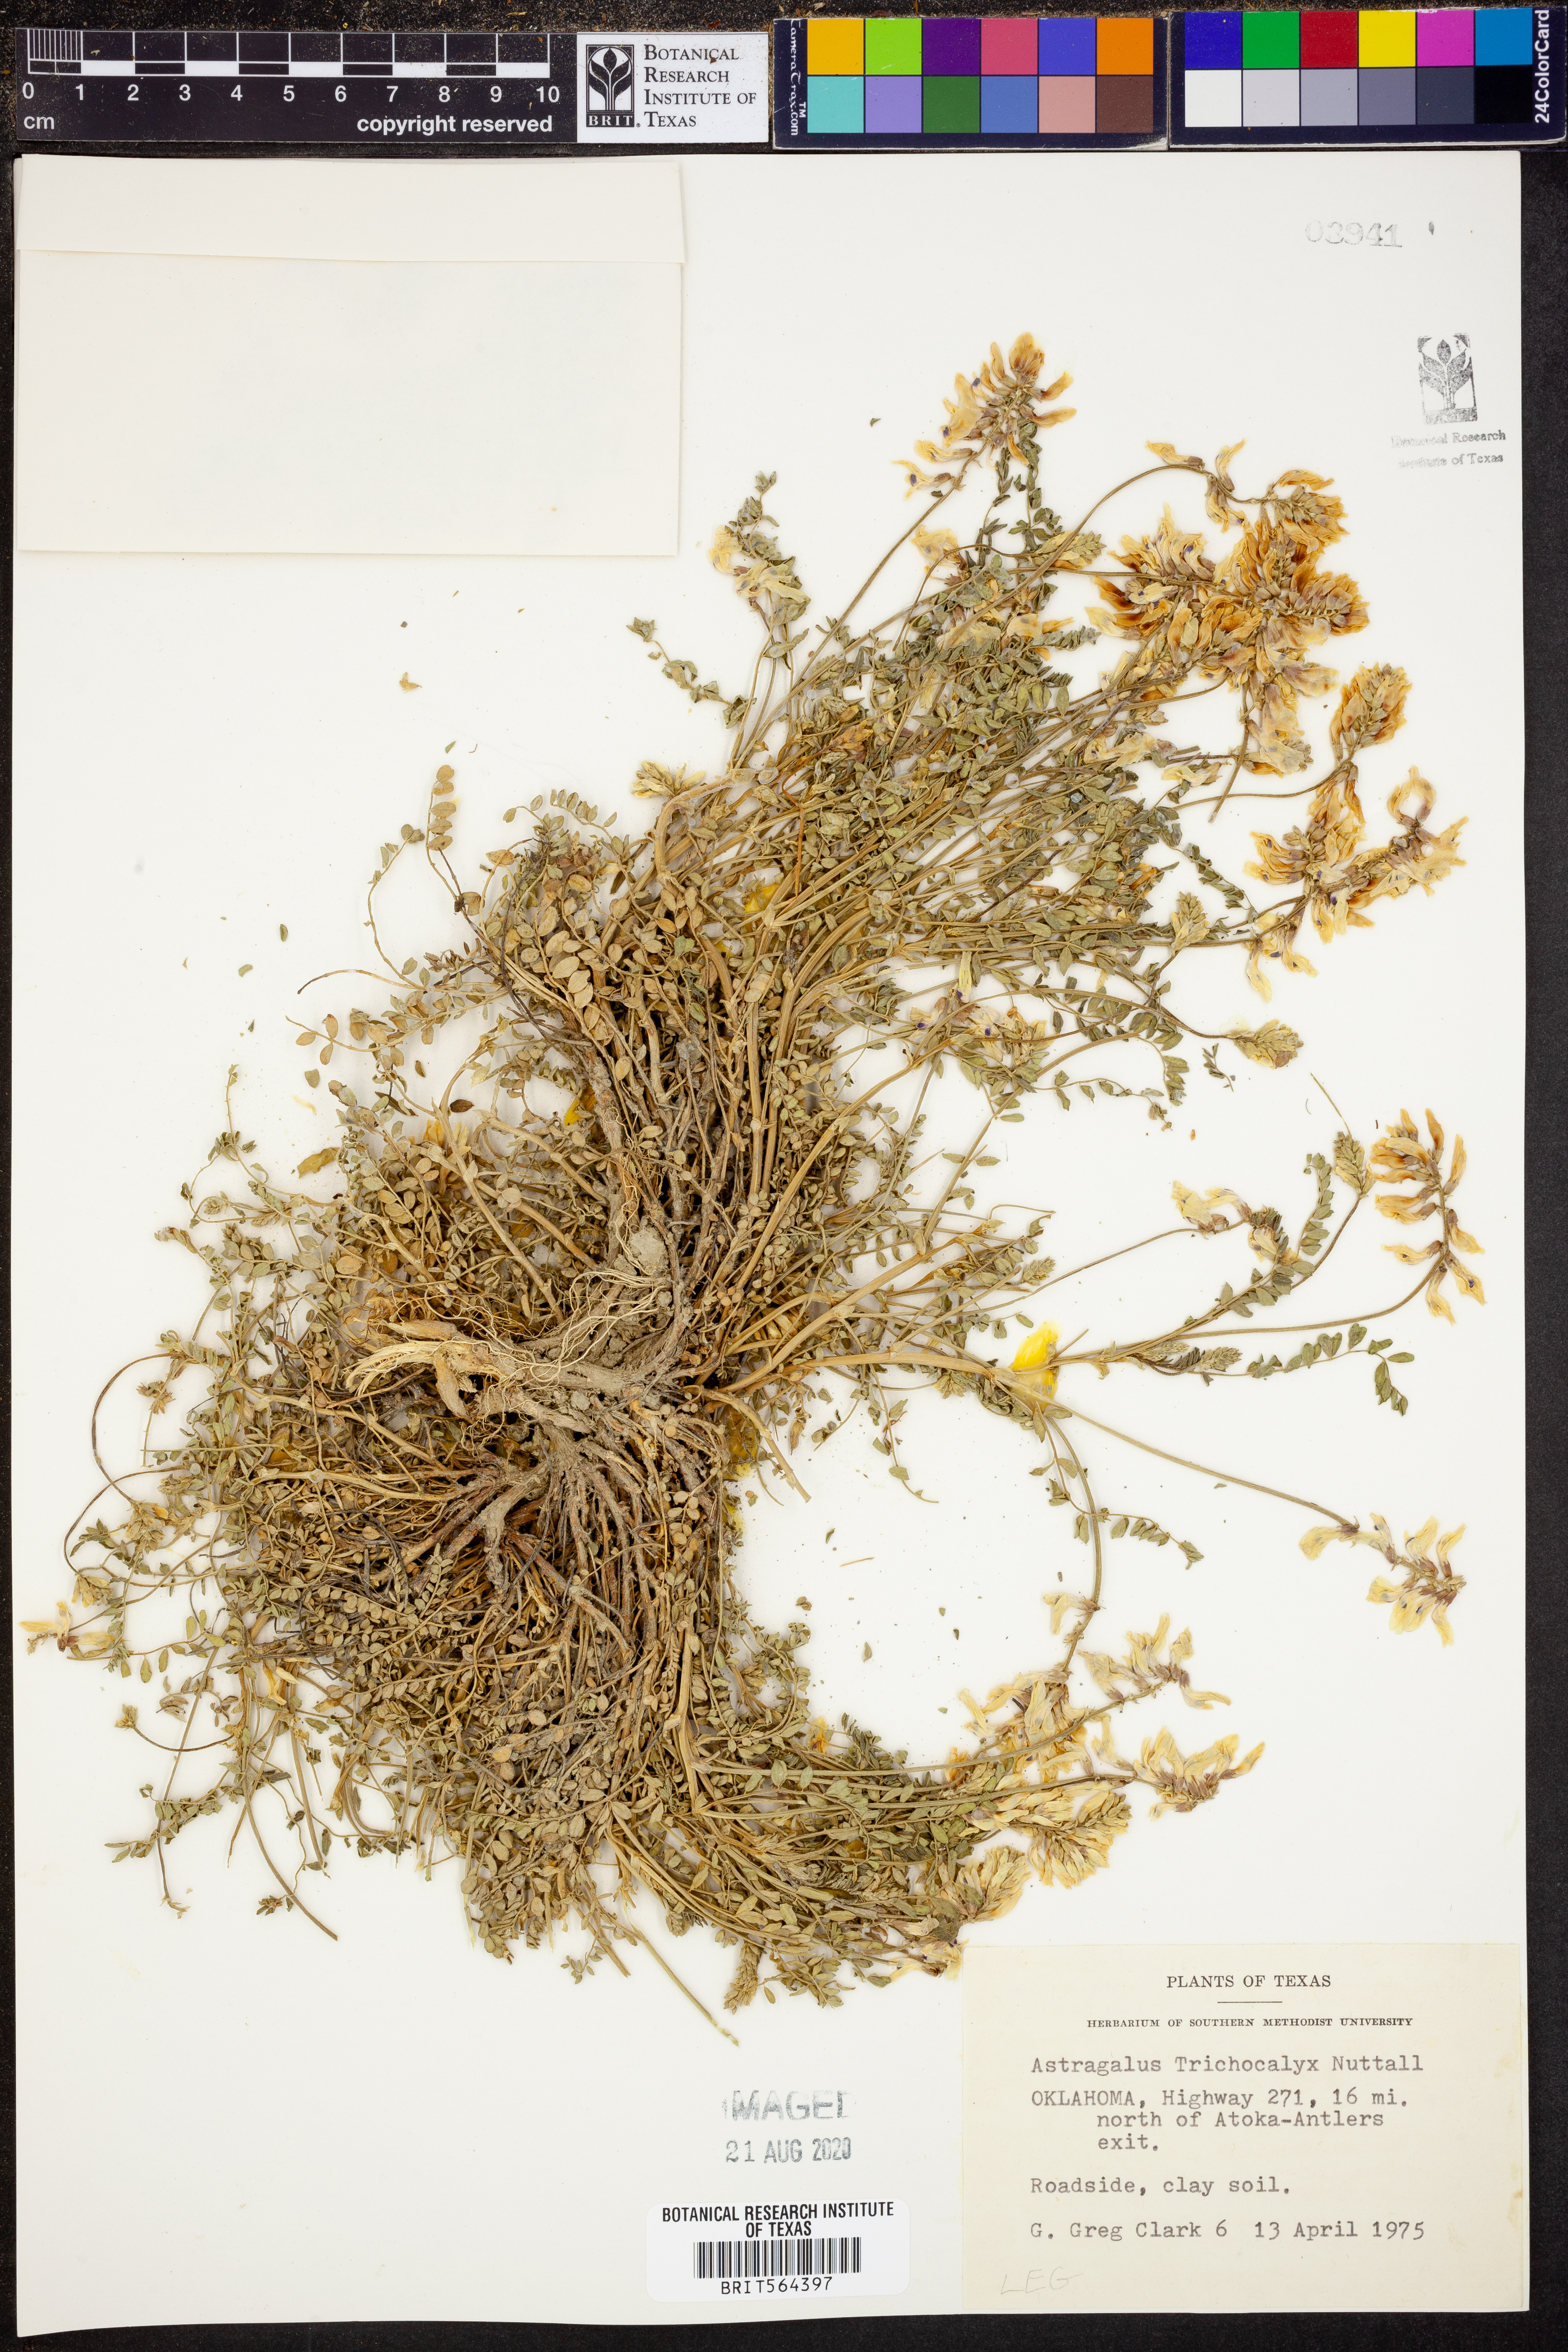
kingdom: Plantae
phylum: Tracheophyta
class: Magnoliopsida
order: Fabales
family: Fabaceae
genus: Astragalus
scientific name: Astragalus petropolitanus
